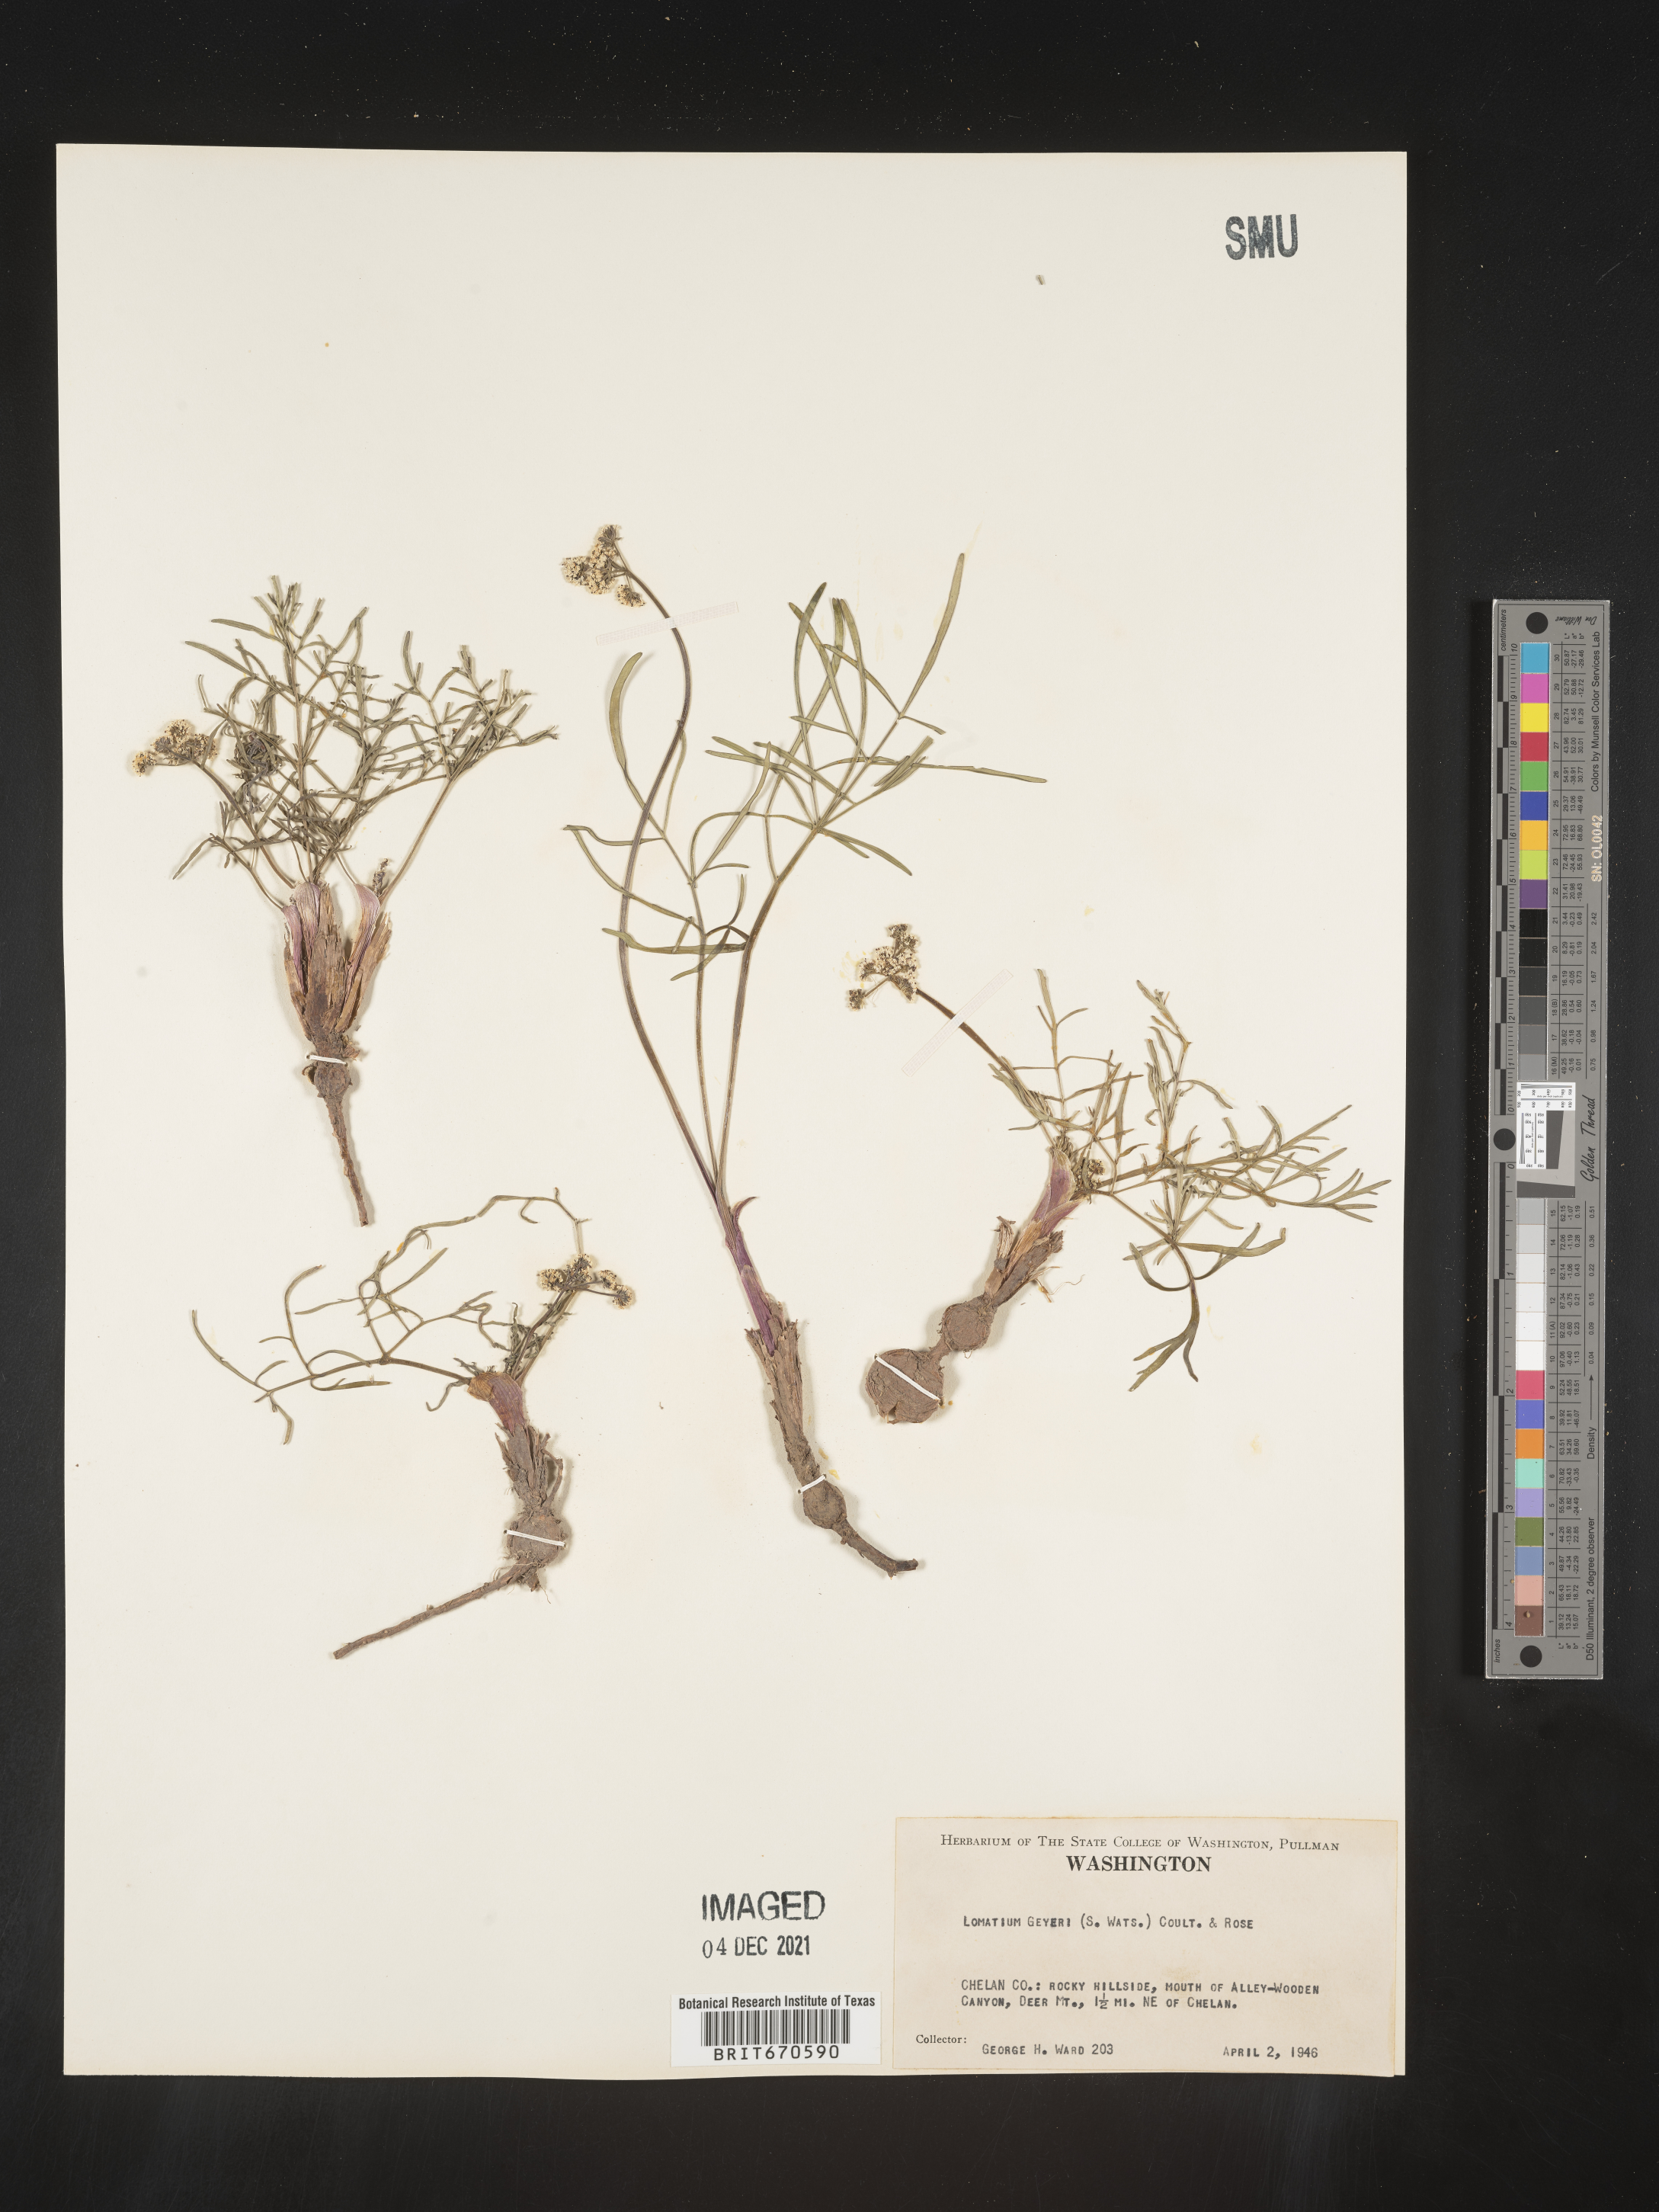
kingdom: Plantae
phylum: Tracheophyta
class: Magnoliopsida
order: Apiales
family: Apiaceae
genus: Lomatium
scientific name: Lomatium geyeri
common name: Geyer's biscuitroot
